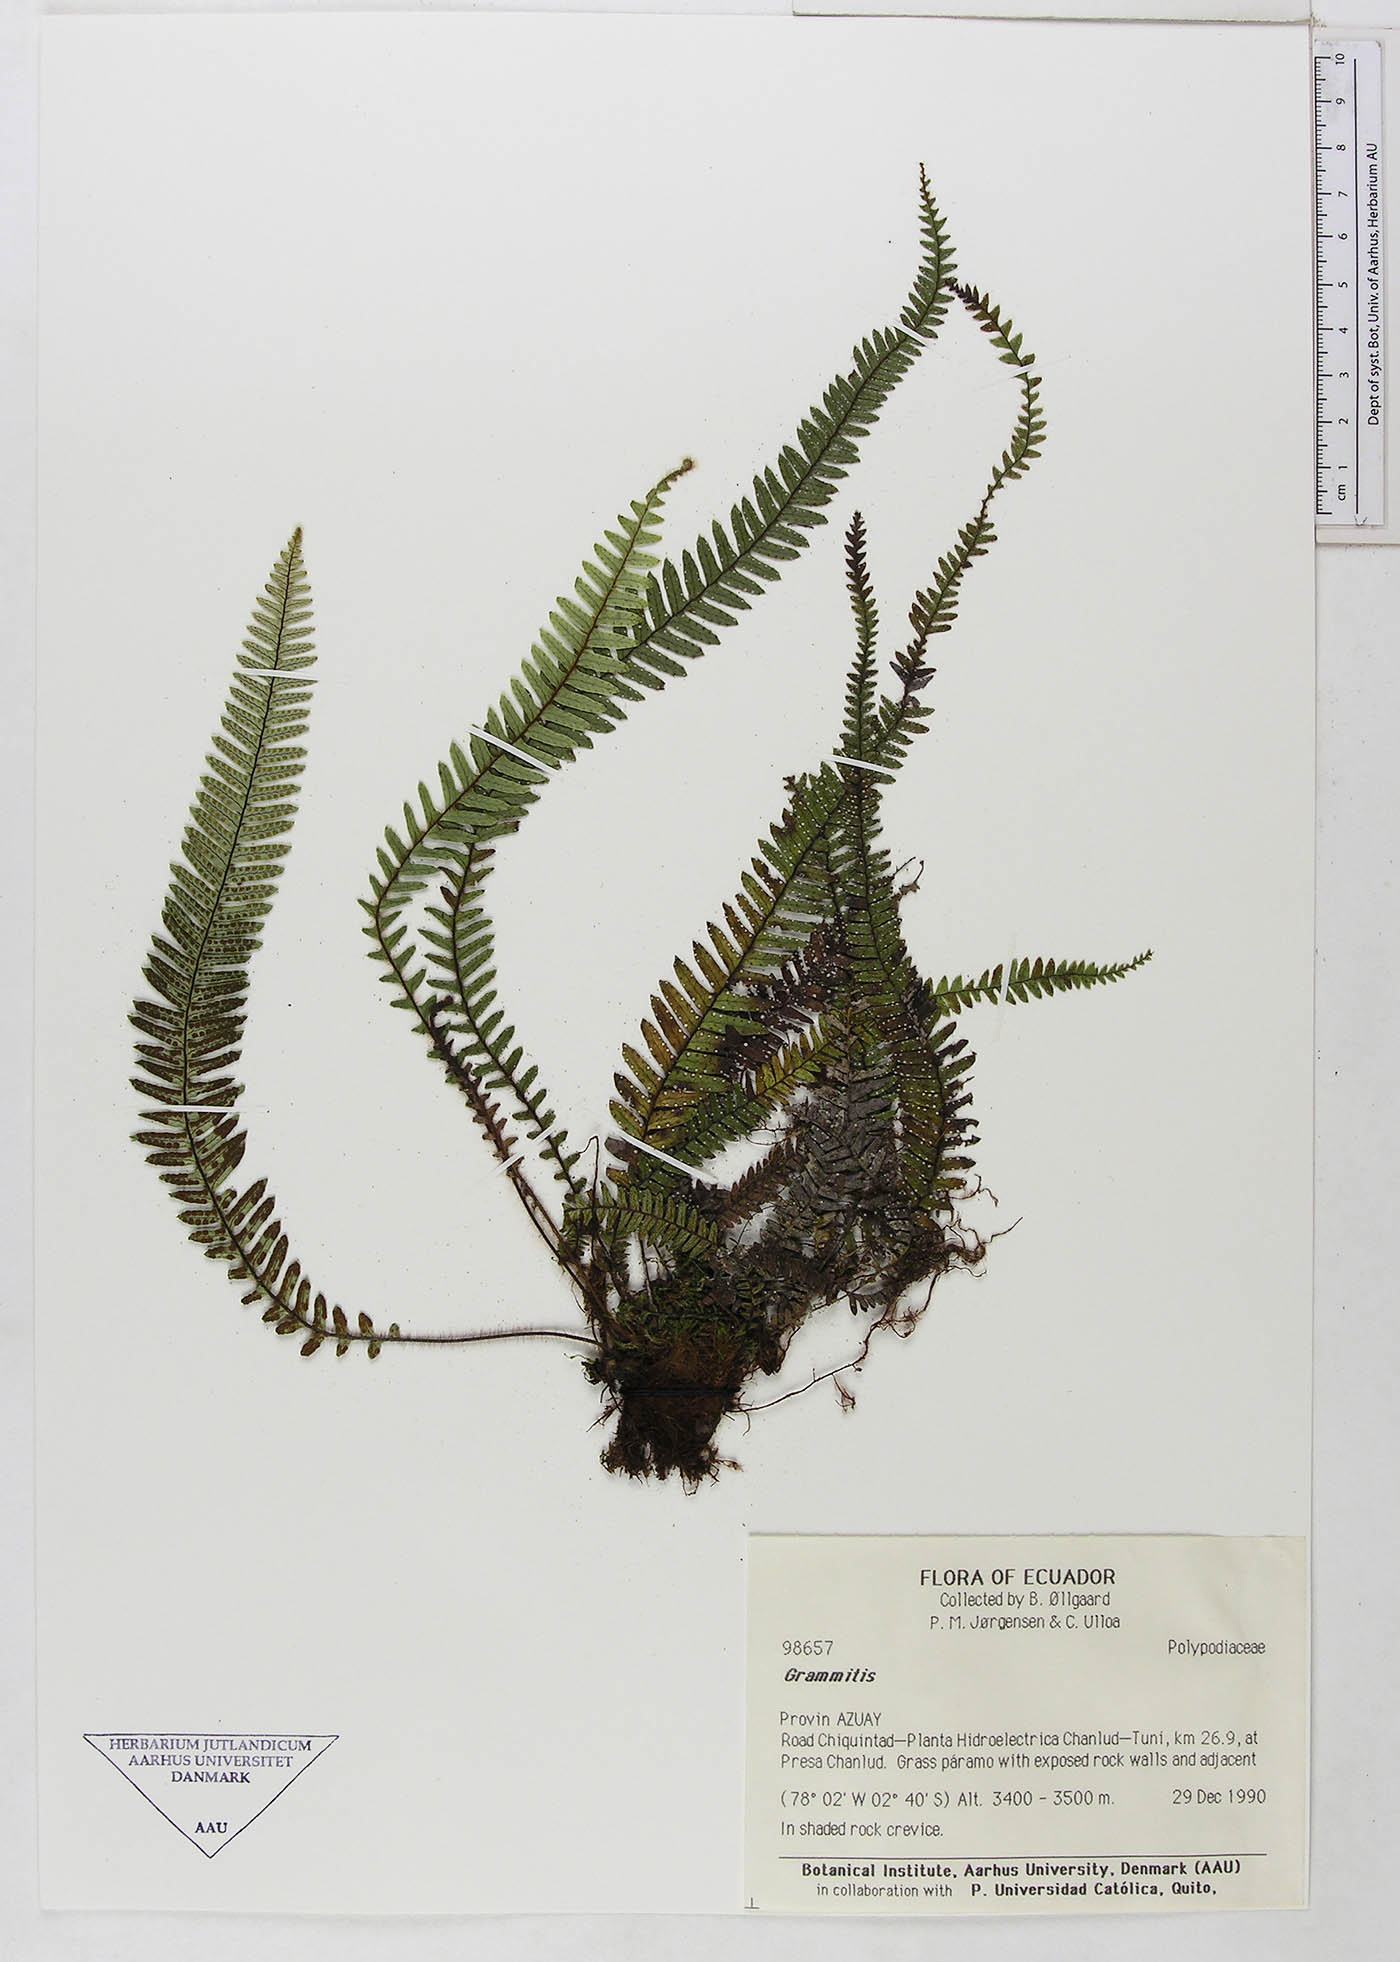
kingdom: Plantae
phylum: Tracheophyta
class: Polypodiopsida
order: Polypodiales
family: Polypodiaceae
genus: Grammitis
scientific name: Grammitis
